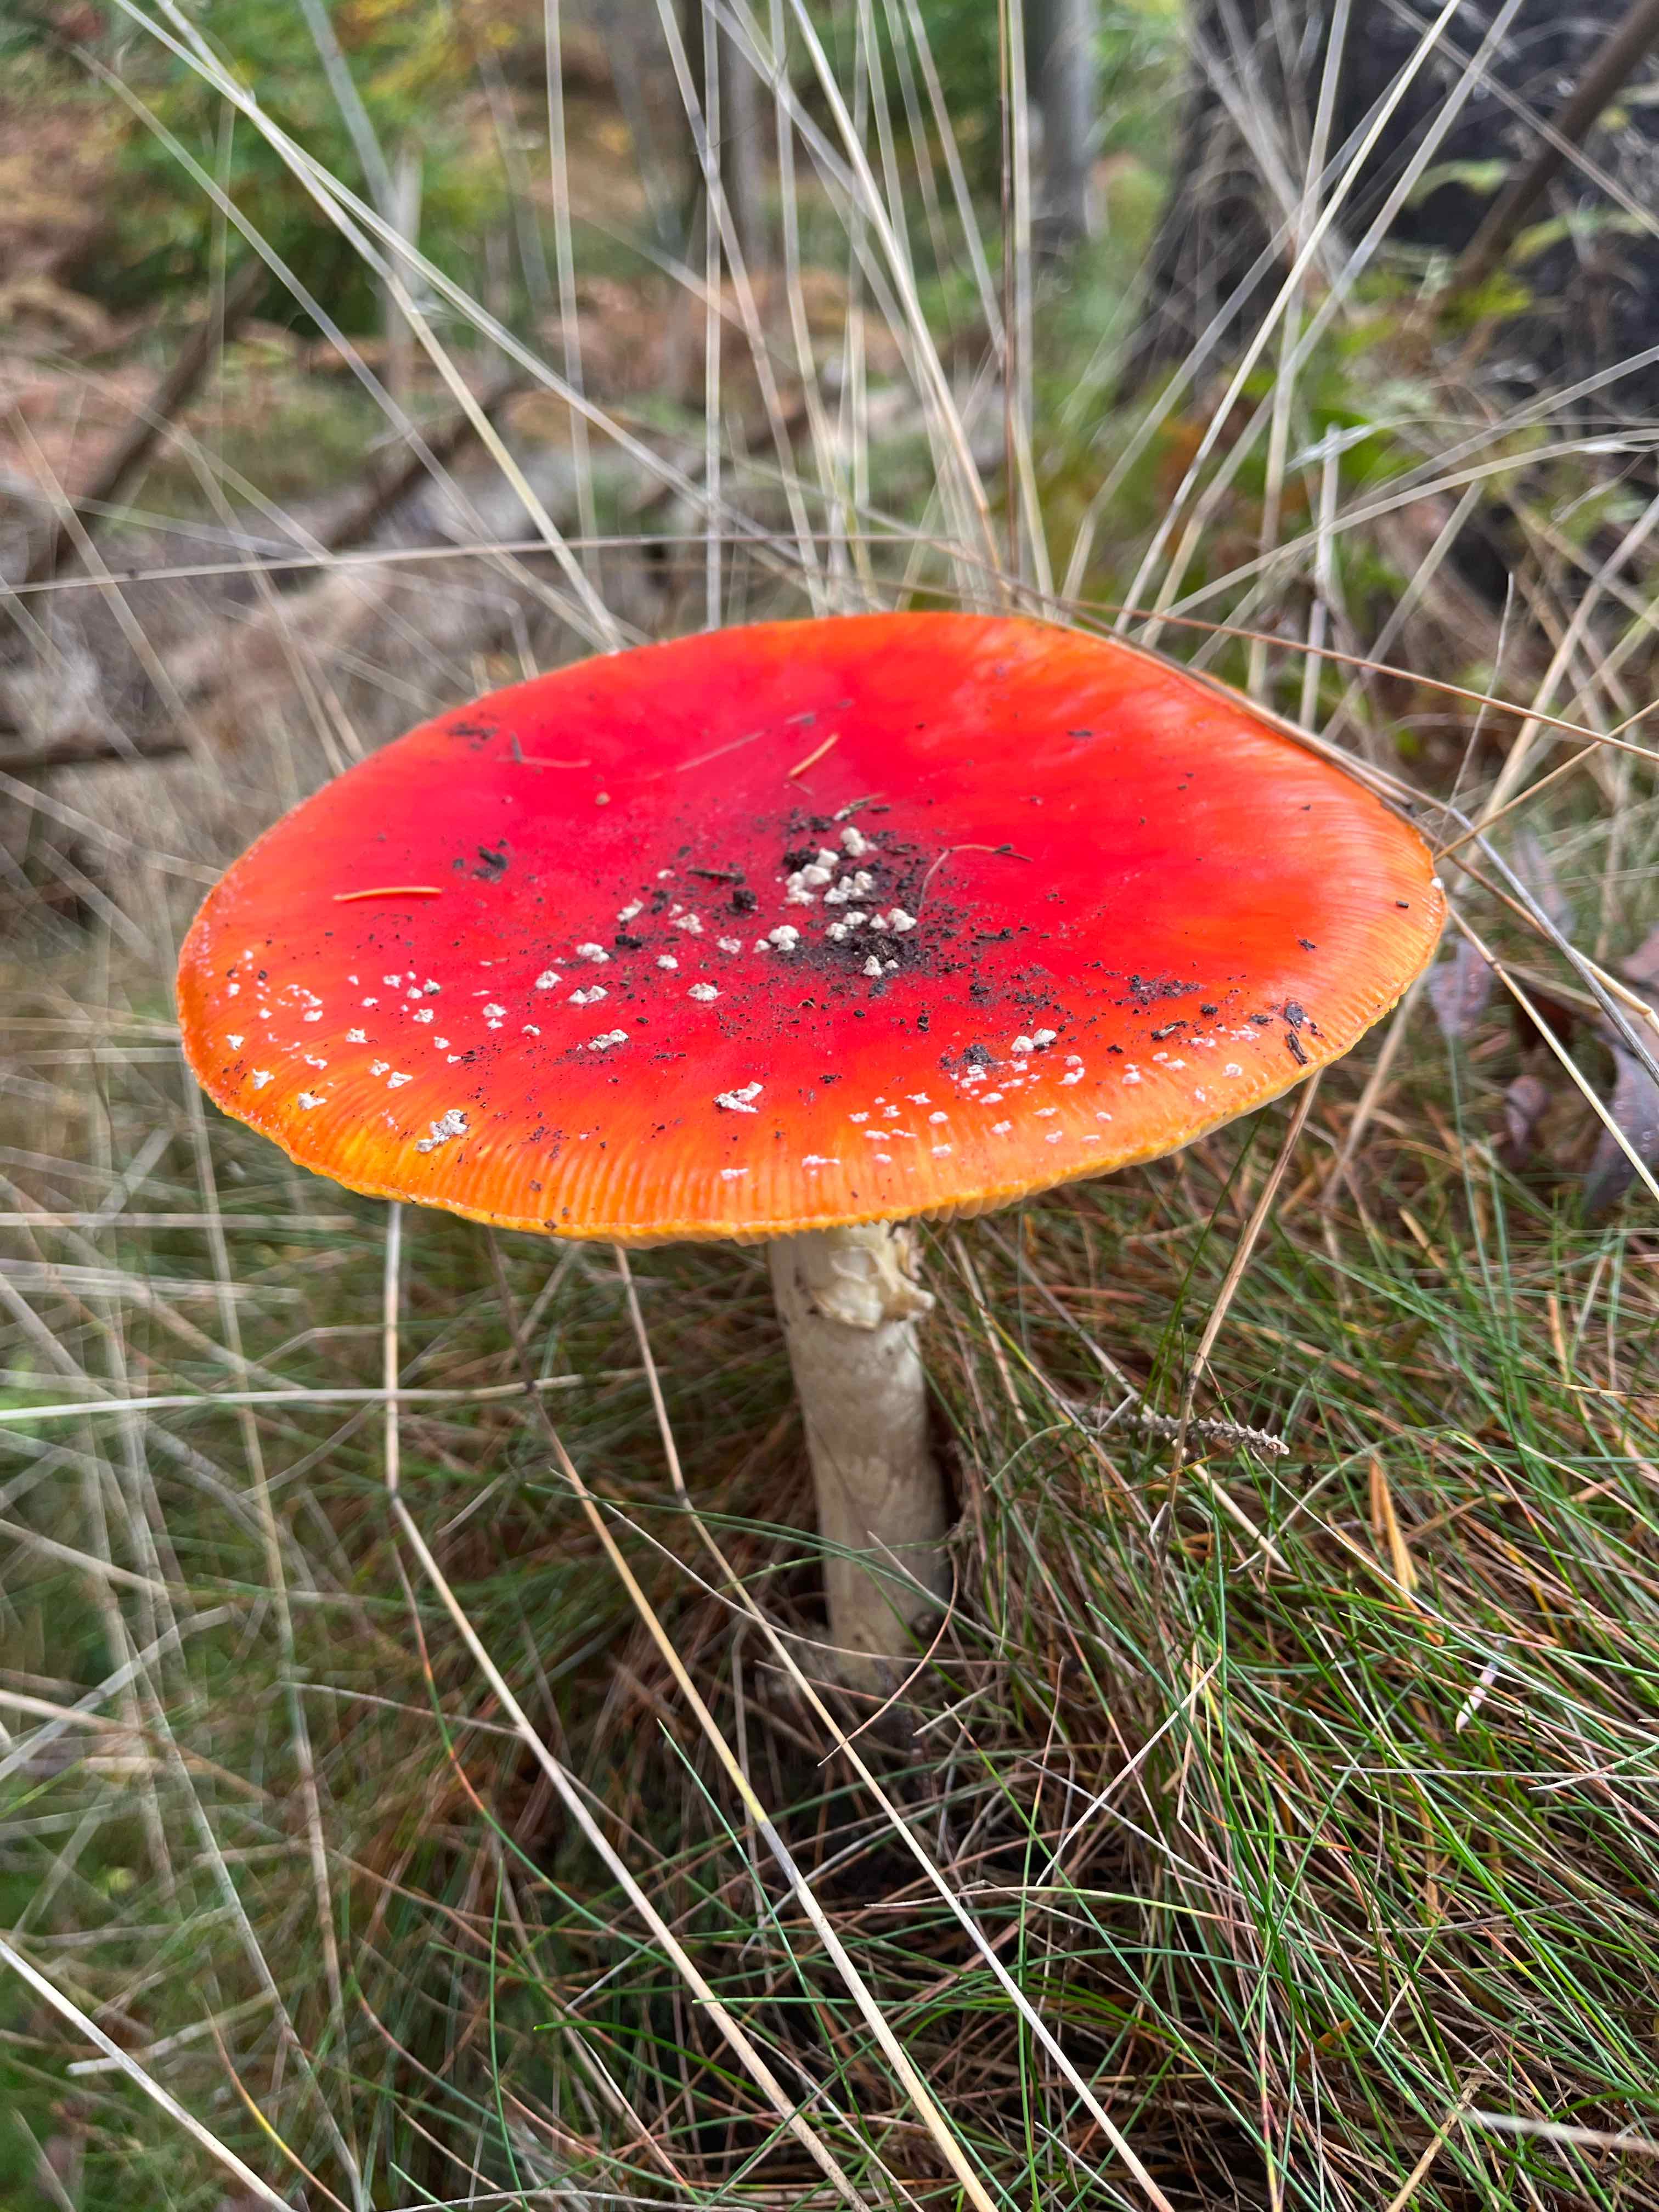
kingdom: Fungi
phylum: Basidiomycota
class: Agaricomycetes
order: Agaricales
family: Amanitaceae
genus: Amanita
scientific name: Amanita muscaria
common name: rød fluesvamp
